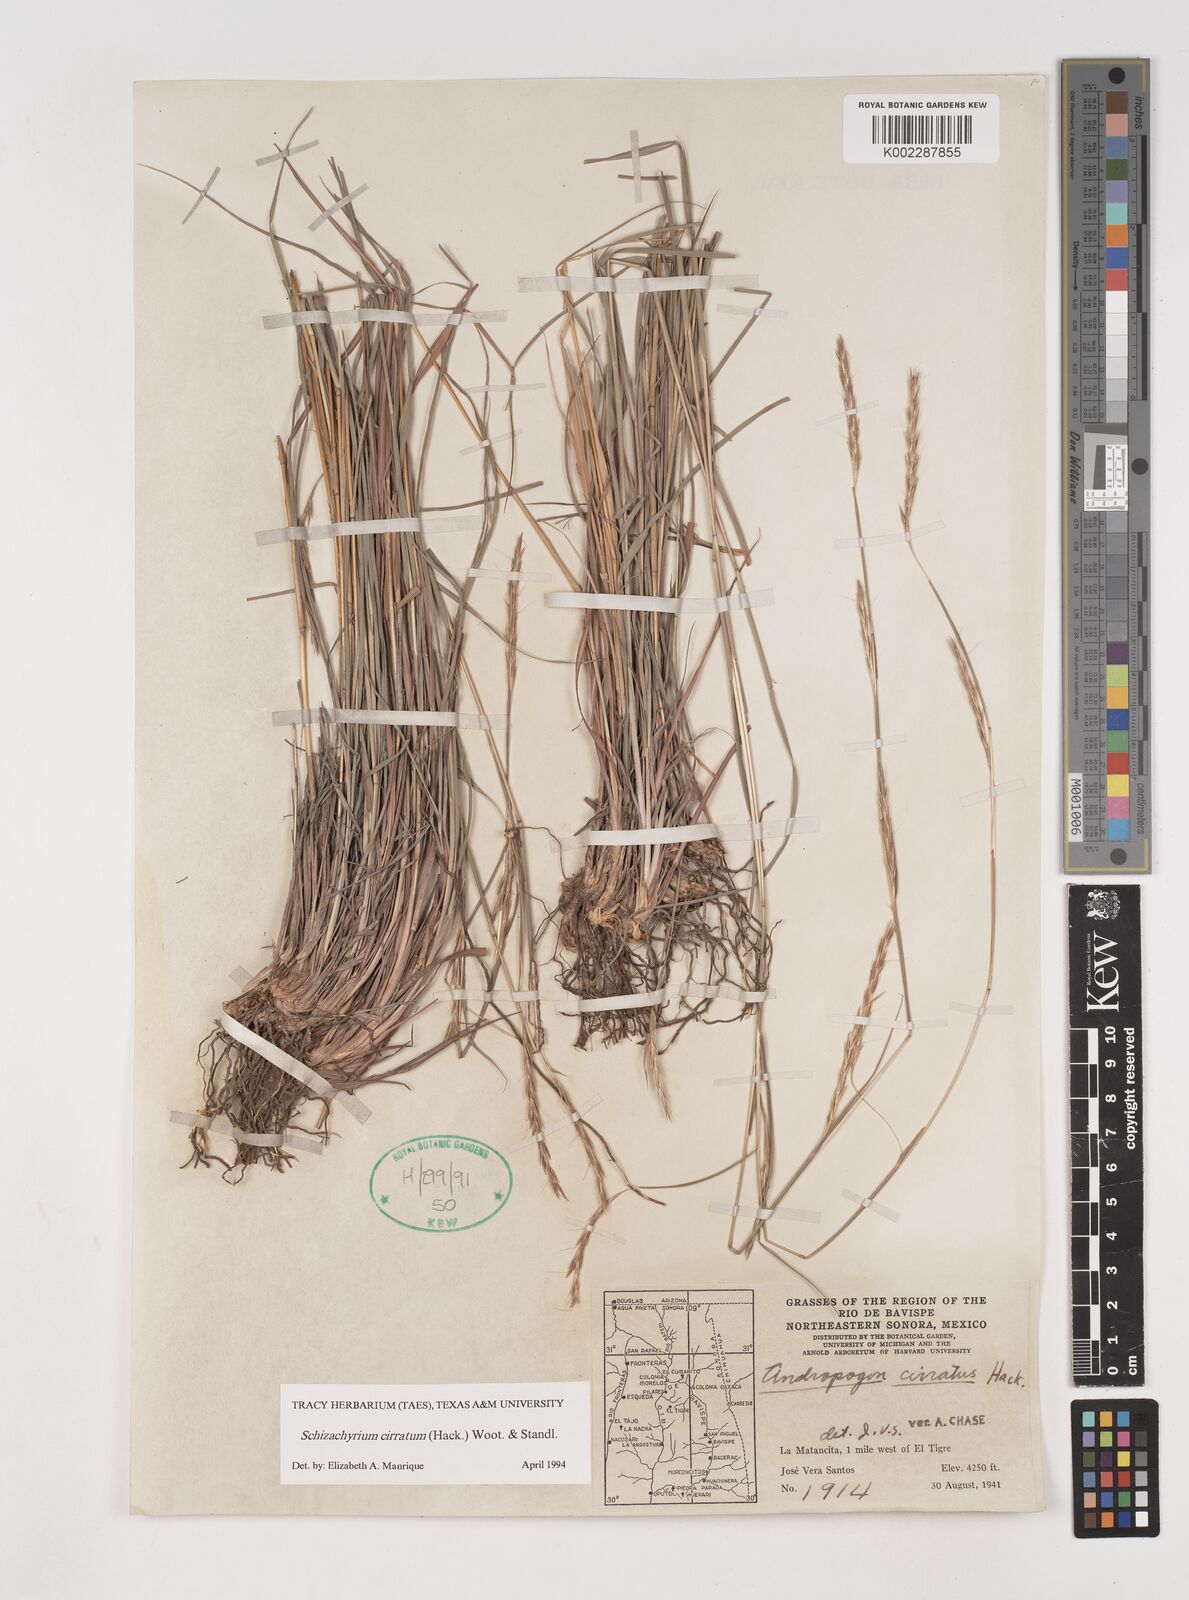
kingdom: Plantae
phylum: Tracheophyta
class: Liliopsida
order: Poales
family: Poaceae
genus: Andropogon
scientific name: Andropogon cirratus
